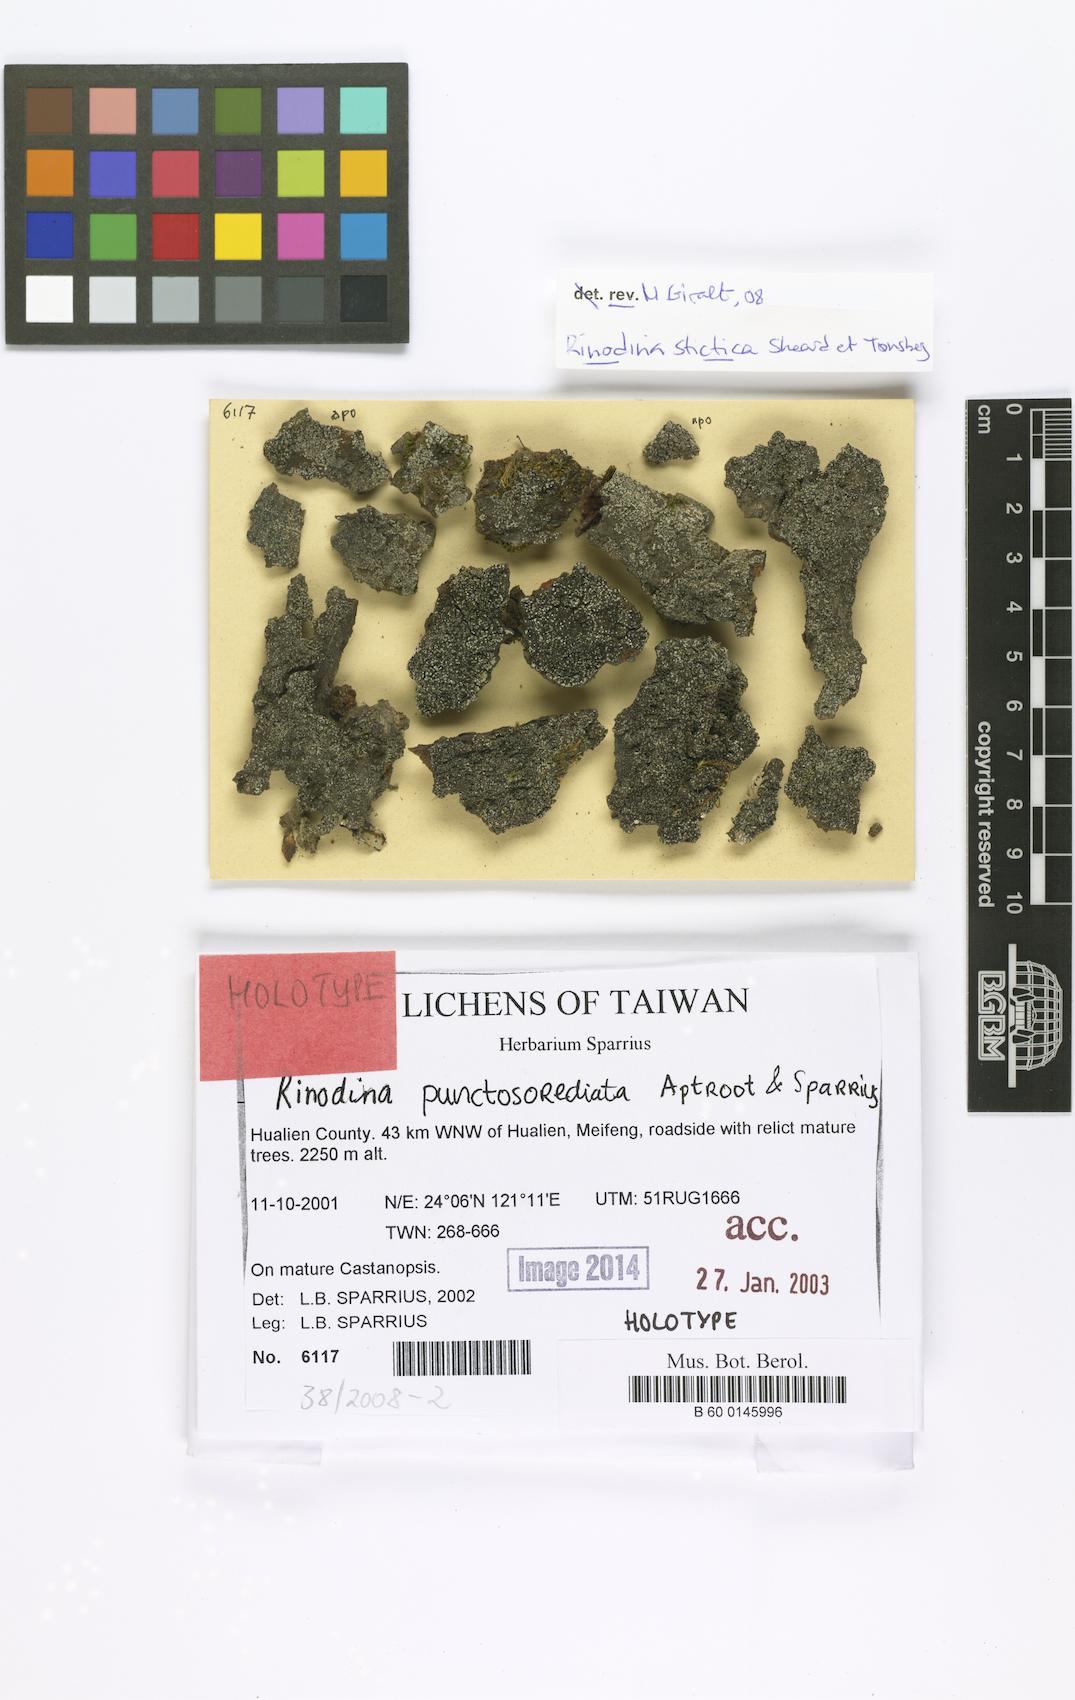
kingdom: Fungi
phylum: Ascomycota
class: Lecanoromycetes
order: Caliciales
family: Physciaceae
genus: Rinodina
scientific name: Rinodina punctosorediata
